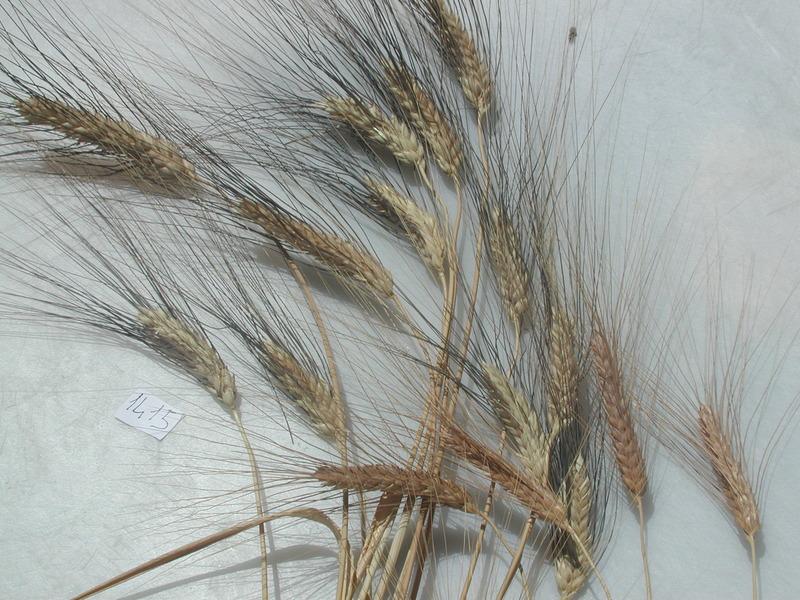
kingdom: Plantae
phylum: Tracheophyta
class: Liliopsida
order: Poales
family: Poaceae
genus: Triticum
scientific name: Triticum turgidum
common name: Wheat
